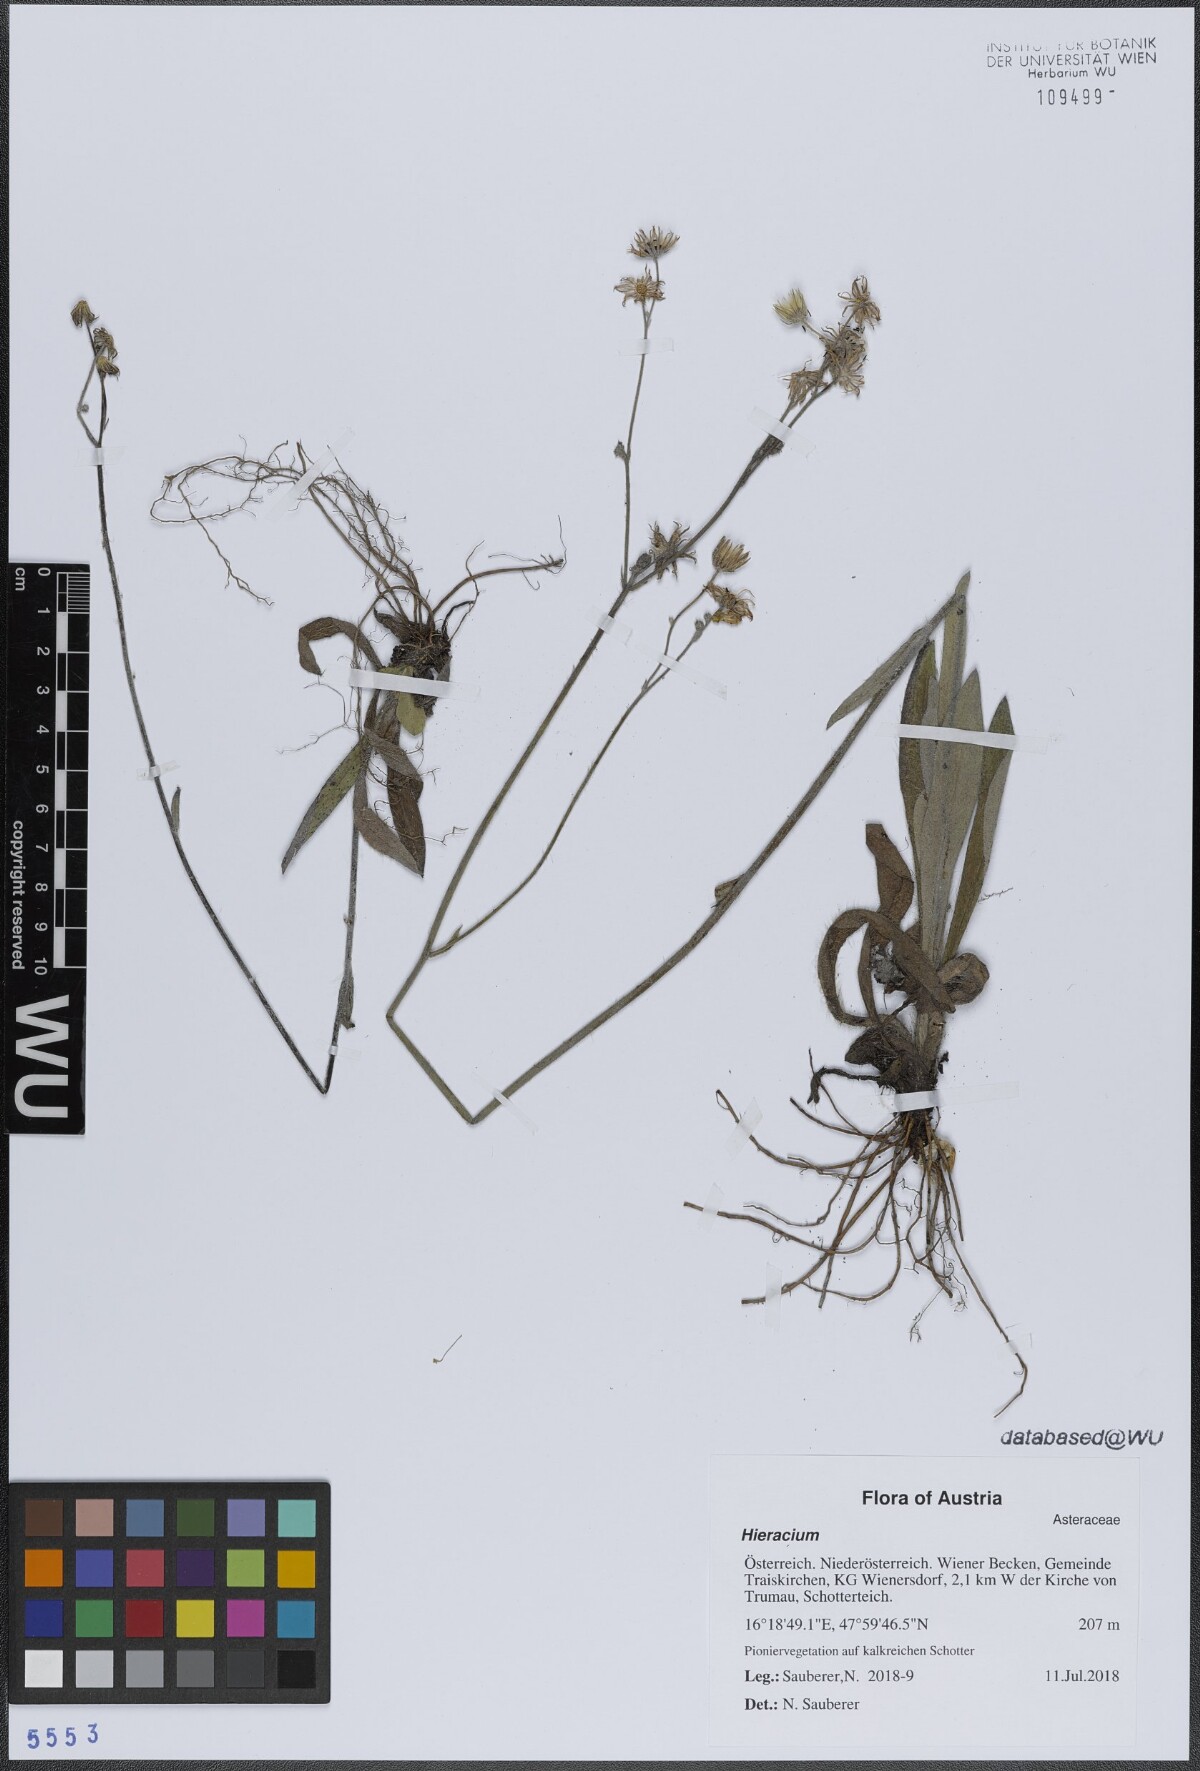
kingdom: Plantae
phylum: Tracheophyta
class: Magnoliopsida
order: Asterales
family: Asteraceae
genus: Hieracium
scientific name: Hieracium
